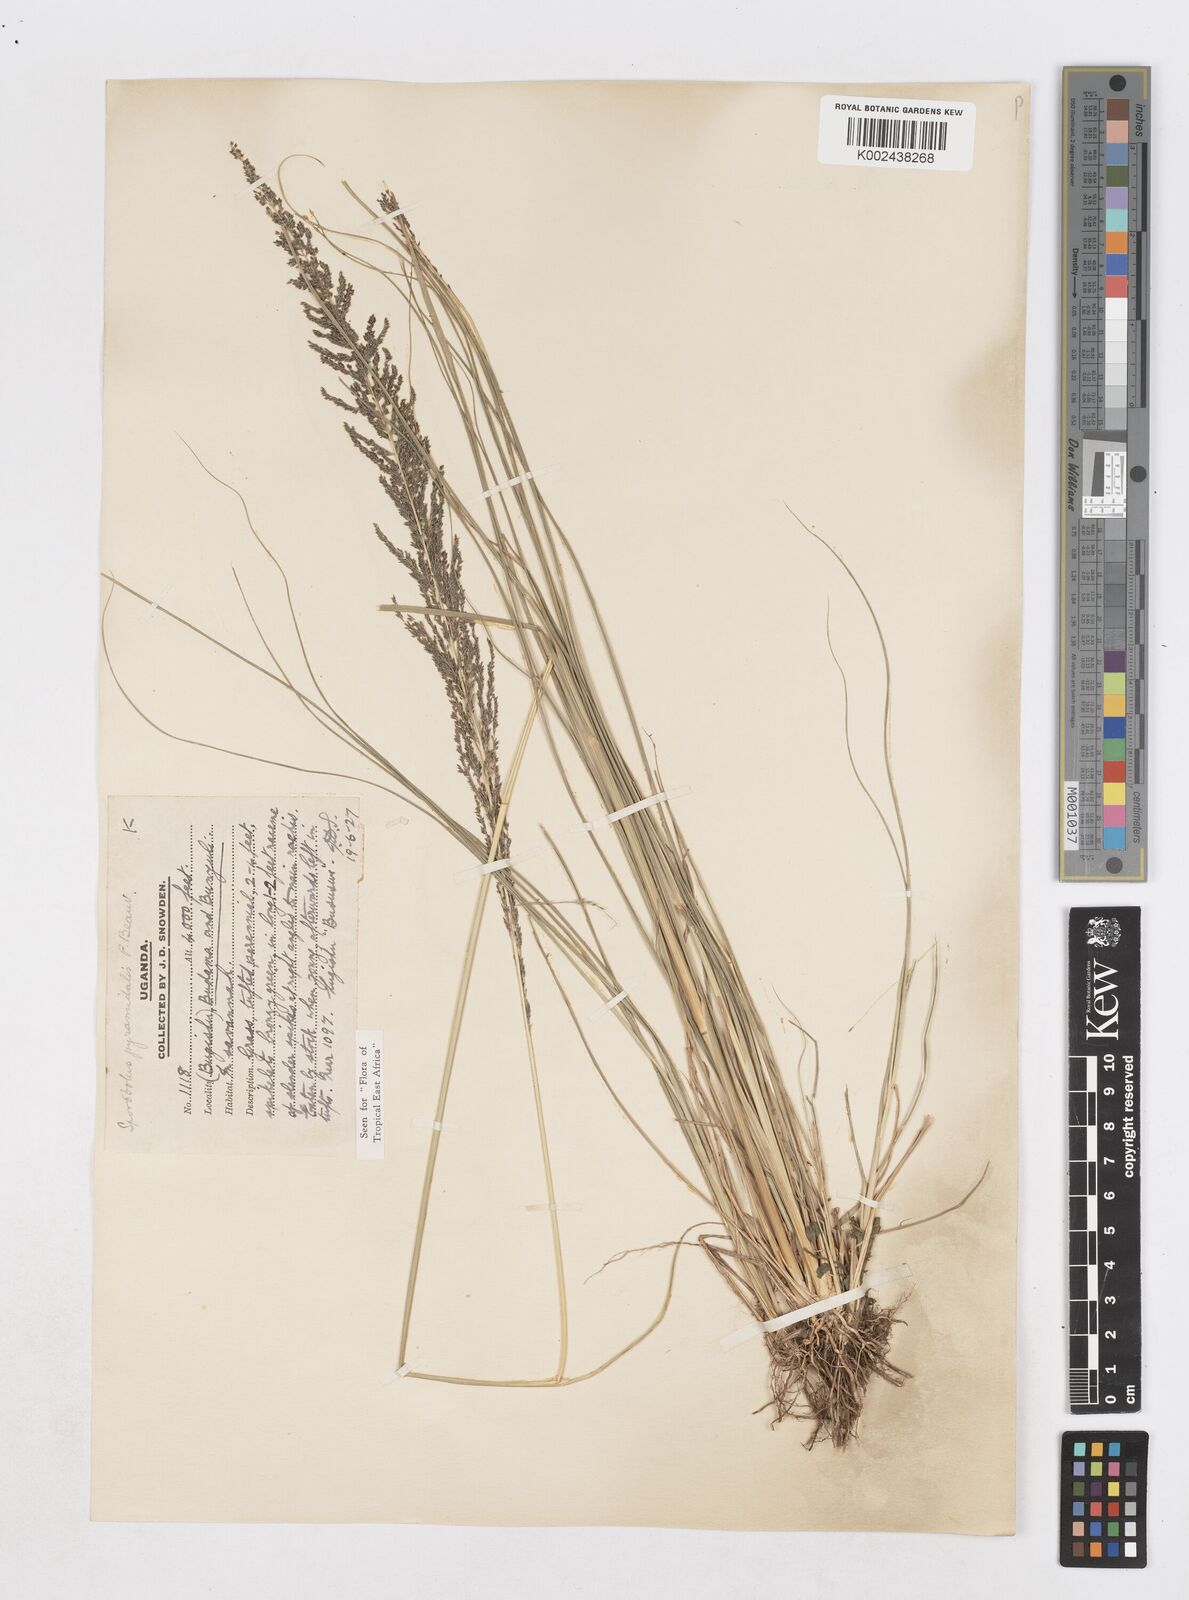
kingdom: Plantae
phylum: Tracheophyta
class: Liliopsida
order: Poales
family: Poaceae
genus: Sporobolus
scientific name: Sporobolus pyramidalis
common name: West indian dropseed
